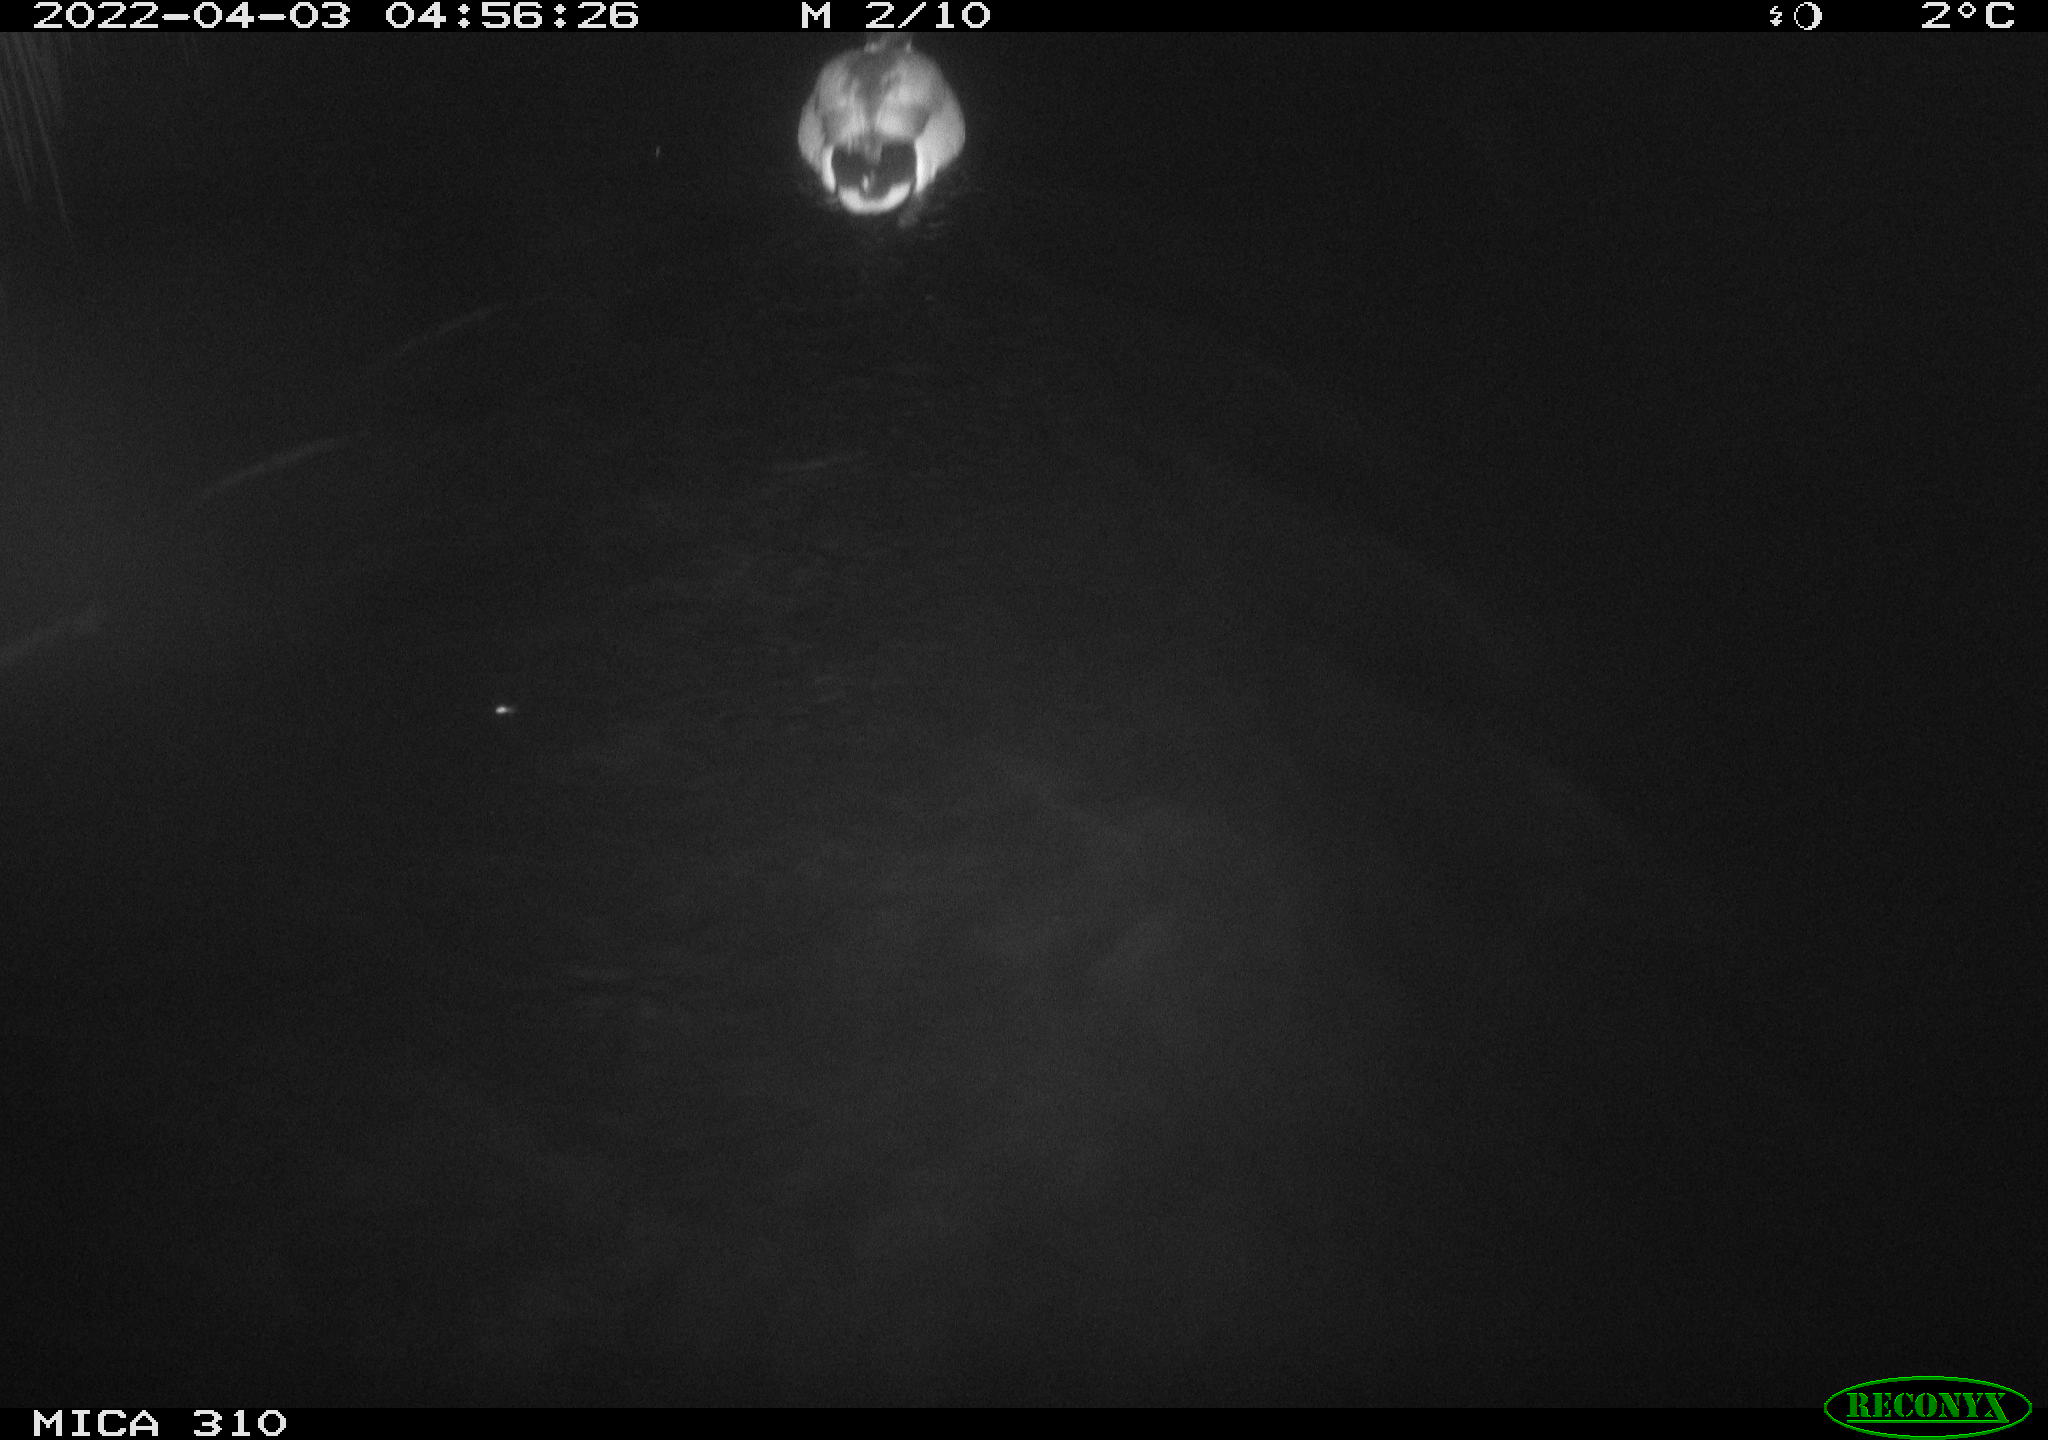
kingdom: Animalia
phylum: Chordata
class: Aves
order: Anseriformes
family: Anatidae
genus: Anas
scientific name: Anas platyrhynchos
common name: Mallard
